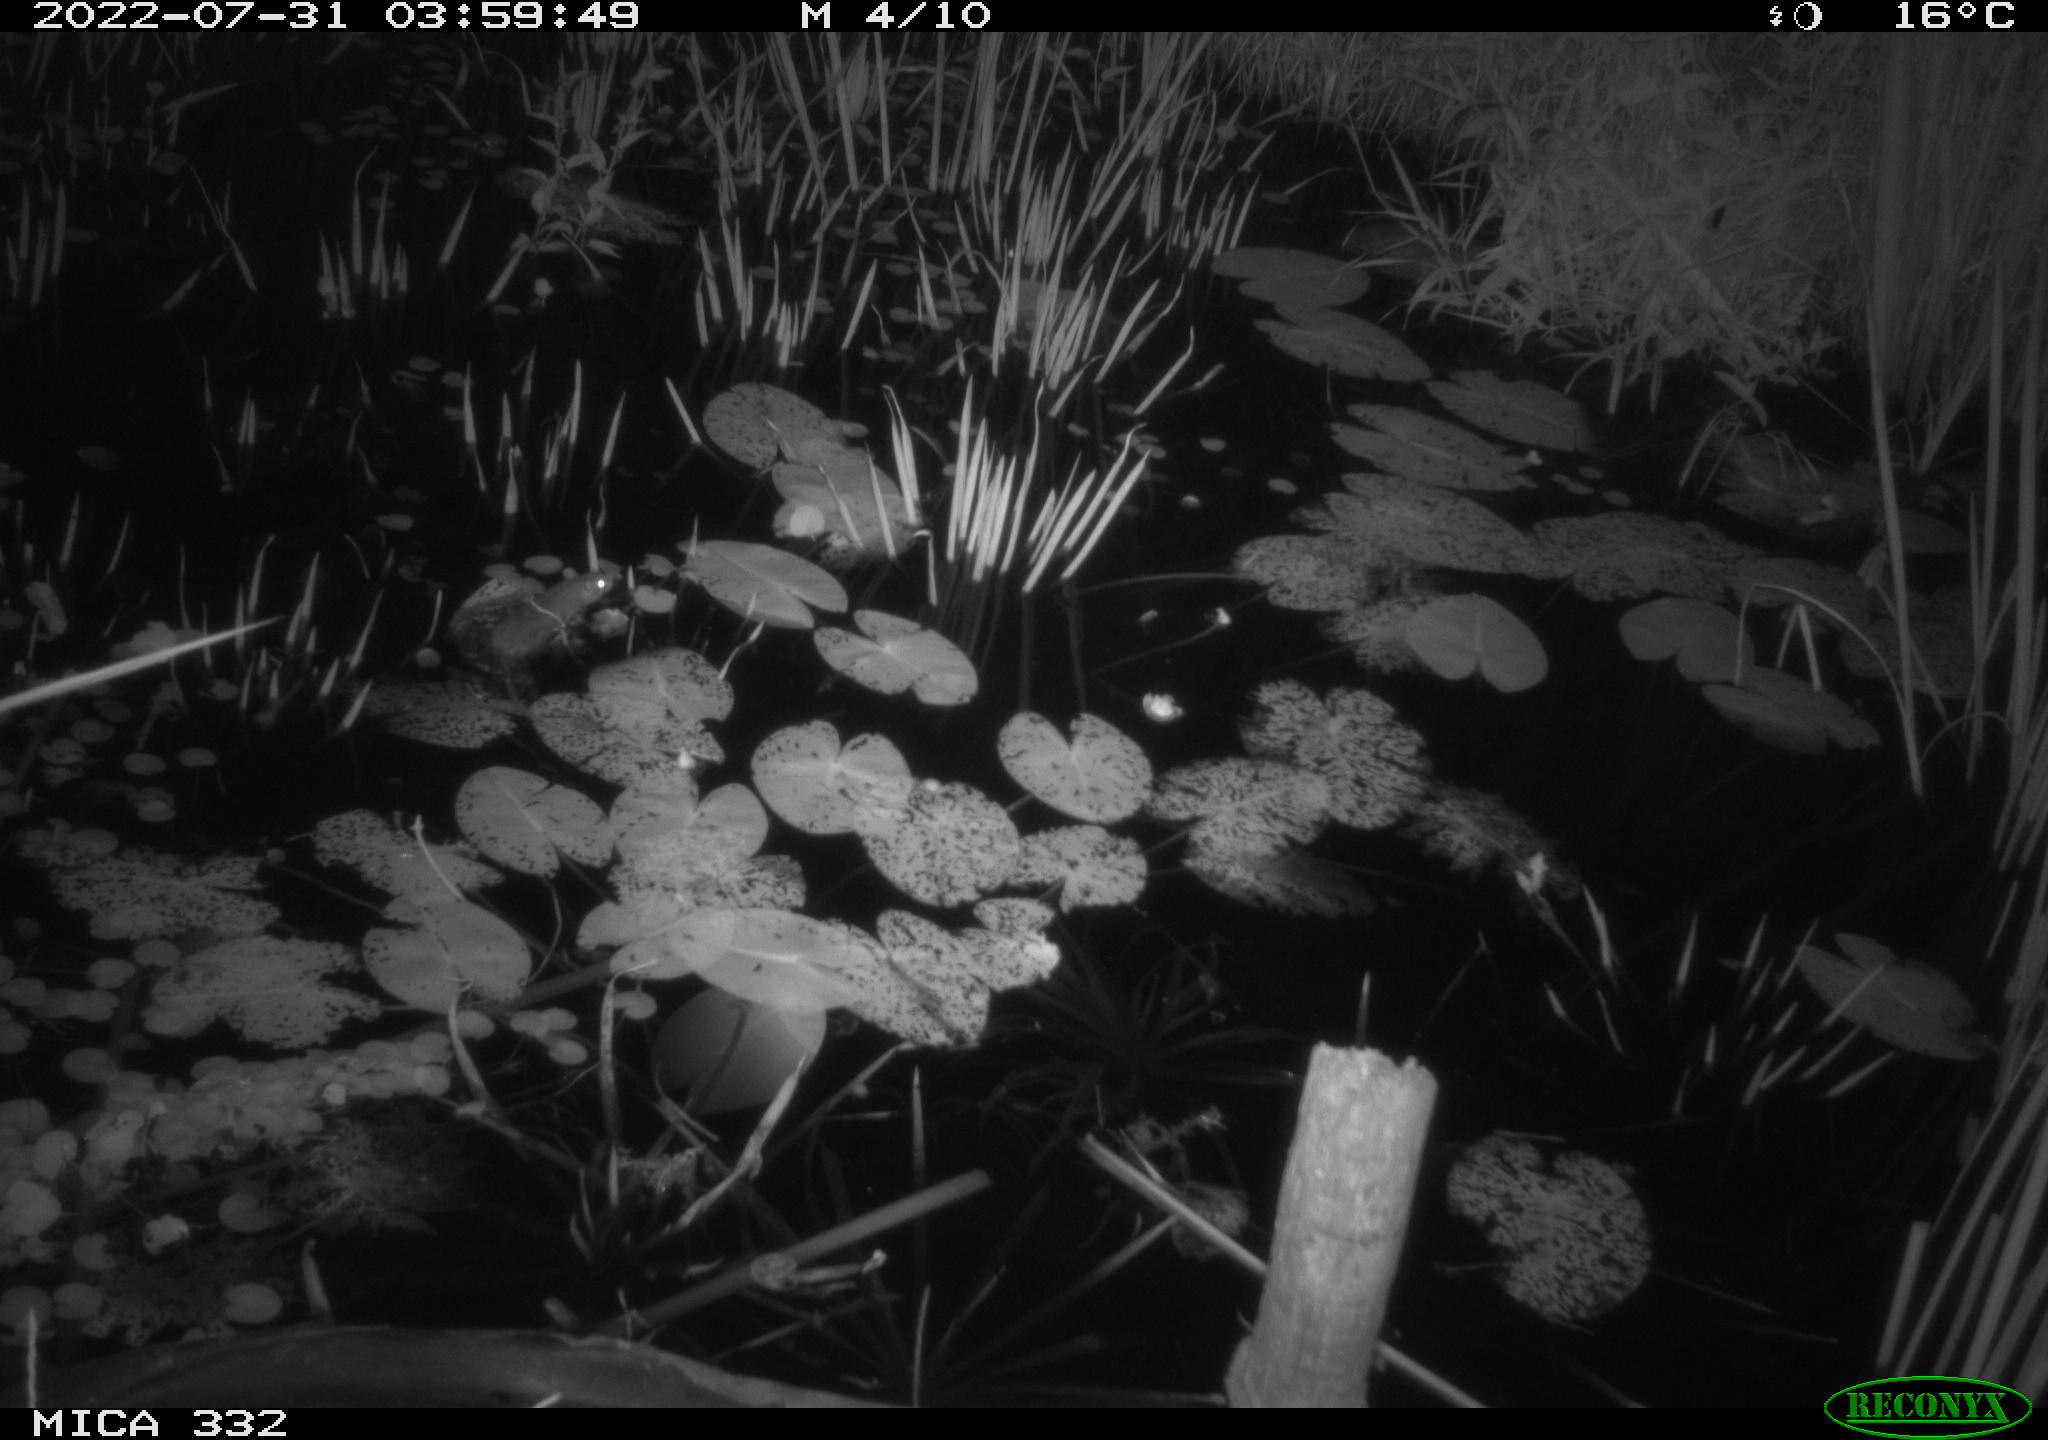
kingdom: Animalia
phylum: Chordata
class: Mammalia
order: Rodentia
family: Muridae
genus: Rattus
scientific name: Rattus norvegicus
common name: Brown rat
